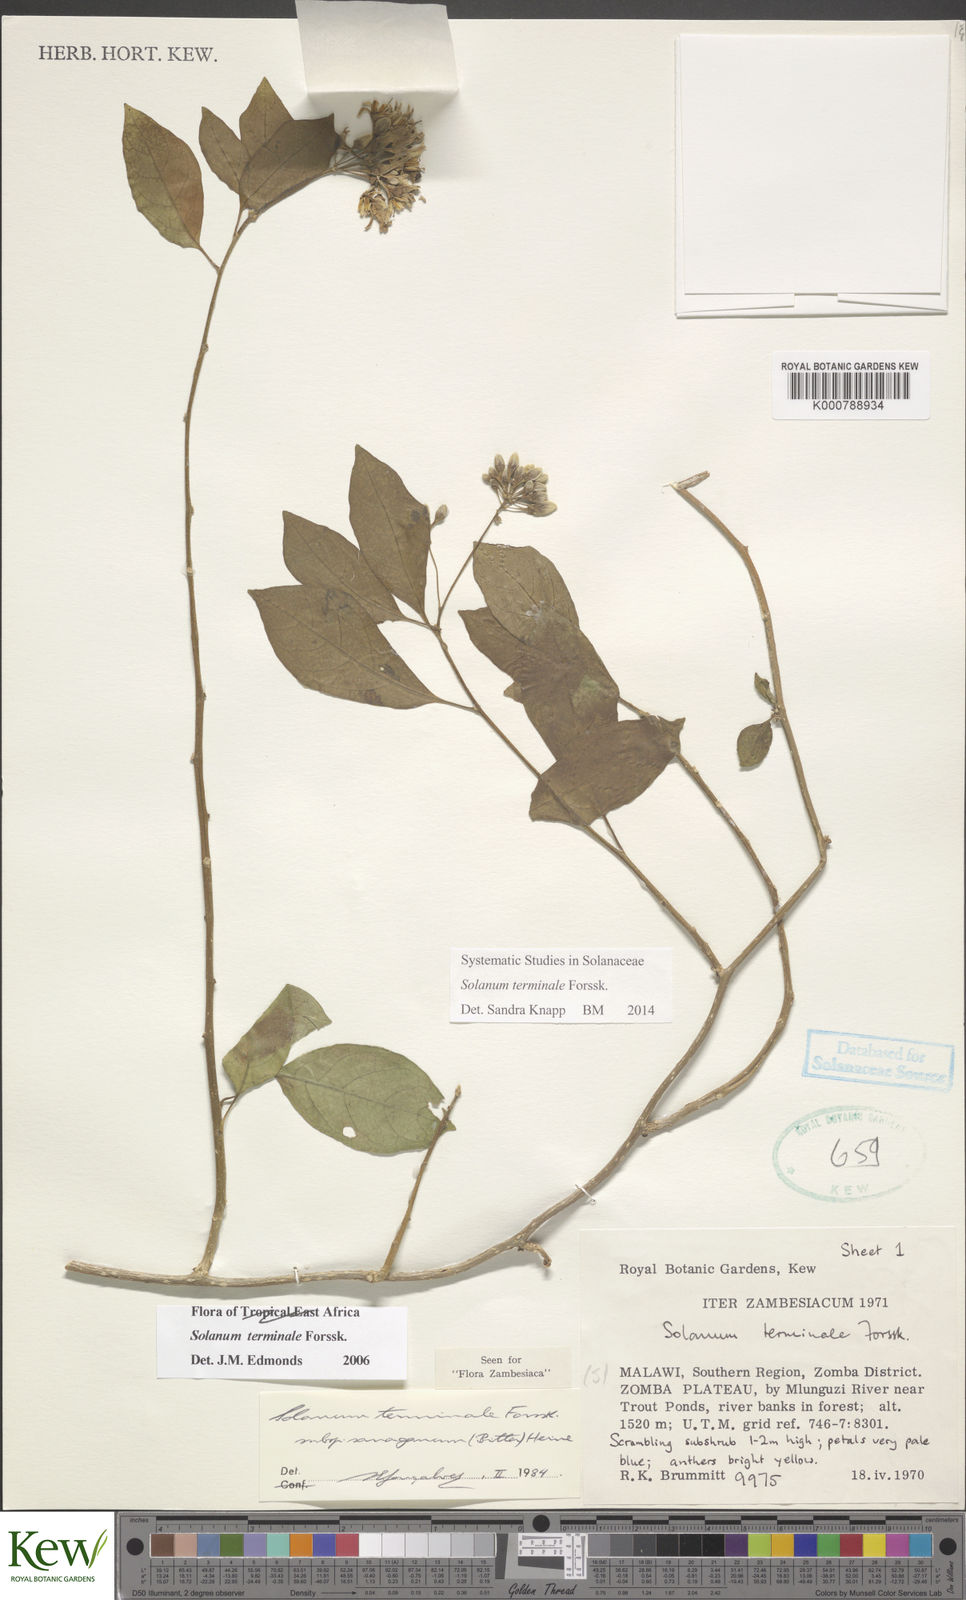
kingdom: Plantae
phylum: Tracheophyta
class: Magnoliopsida
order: Solanales
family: Solanaceae
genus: Solanum
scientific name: Solanum terminale
